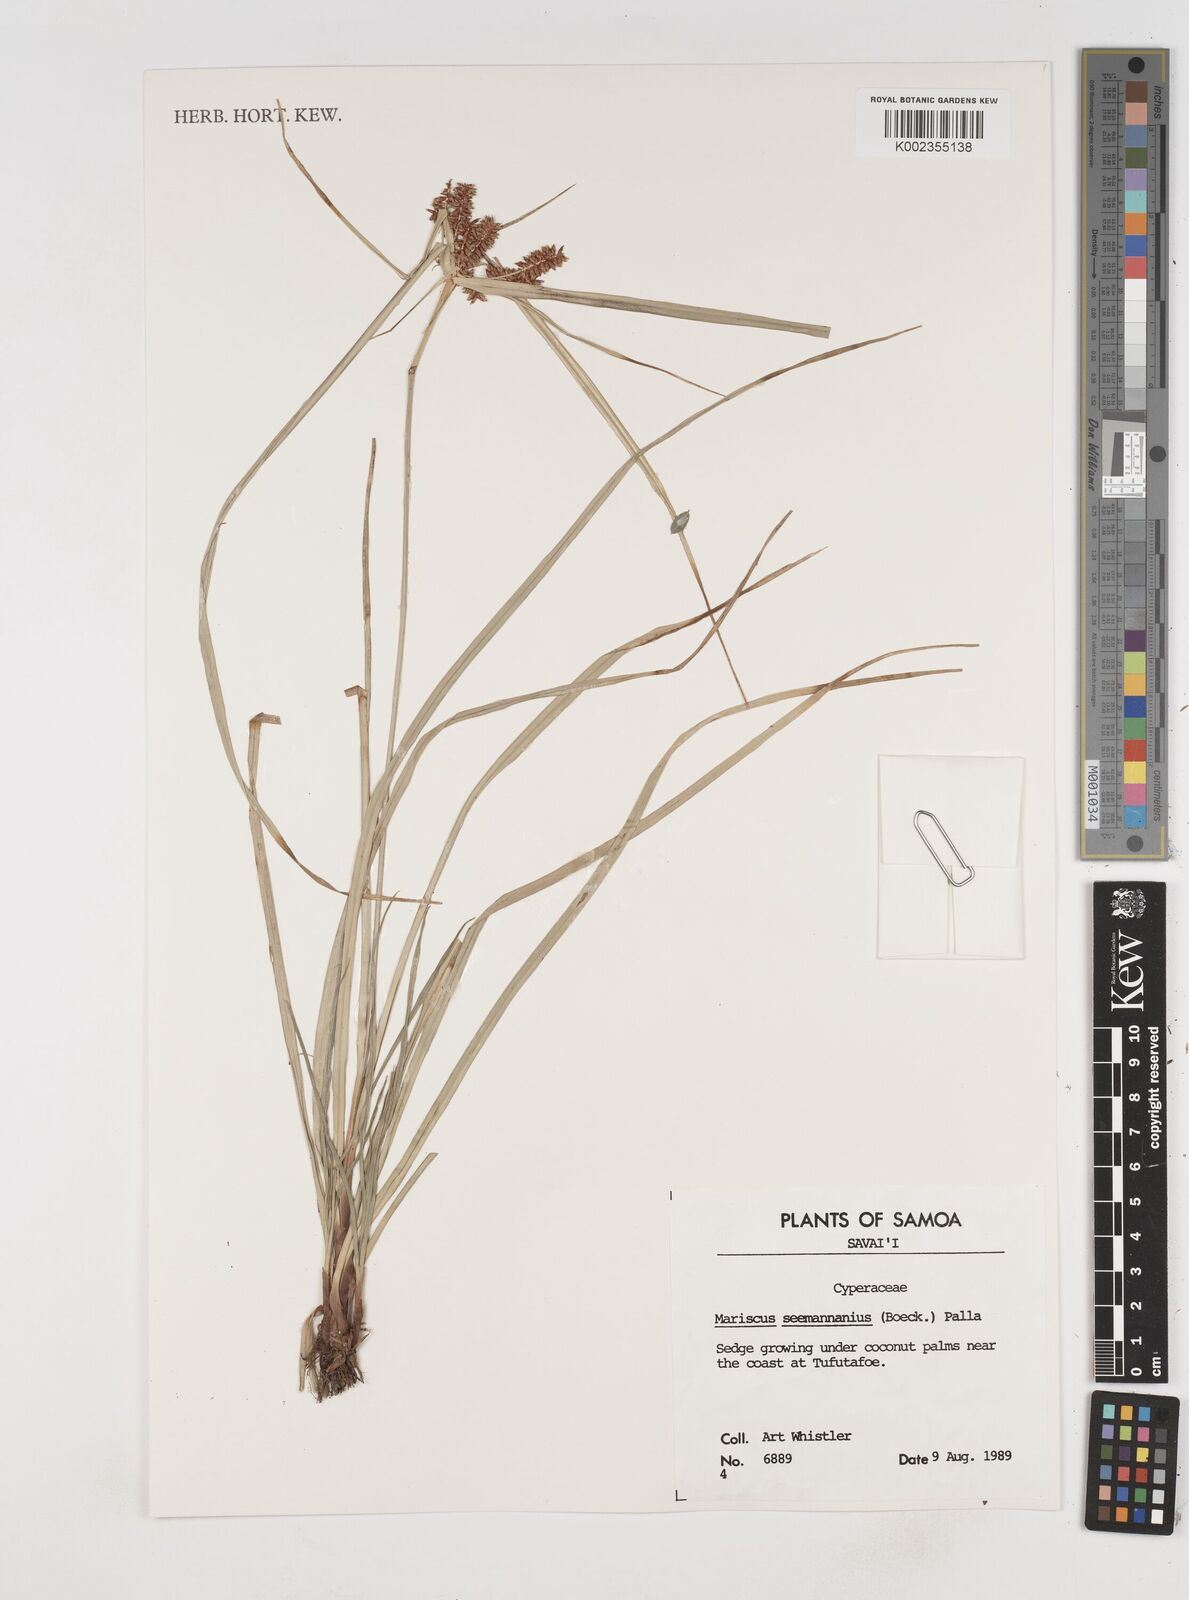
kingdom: Plantae
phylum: Tracheophyta
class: Liliopsida
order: Poales
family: Cyperaceae
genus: Cyperus
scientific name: Cyperus seemannianus
